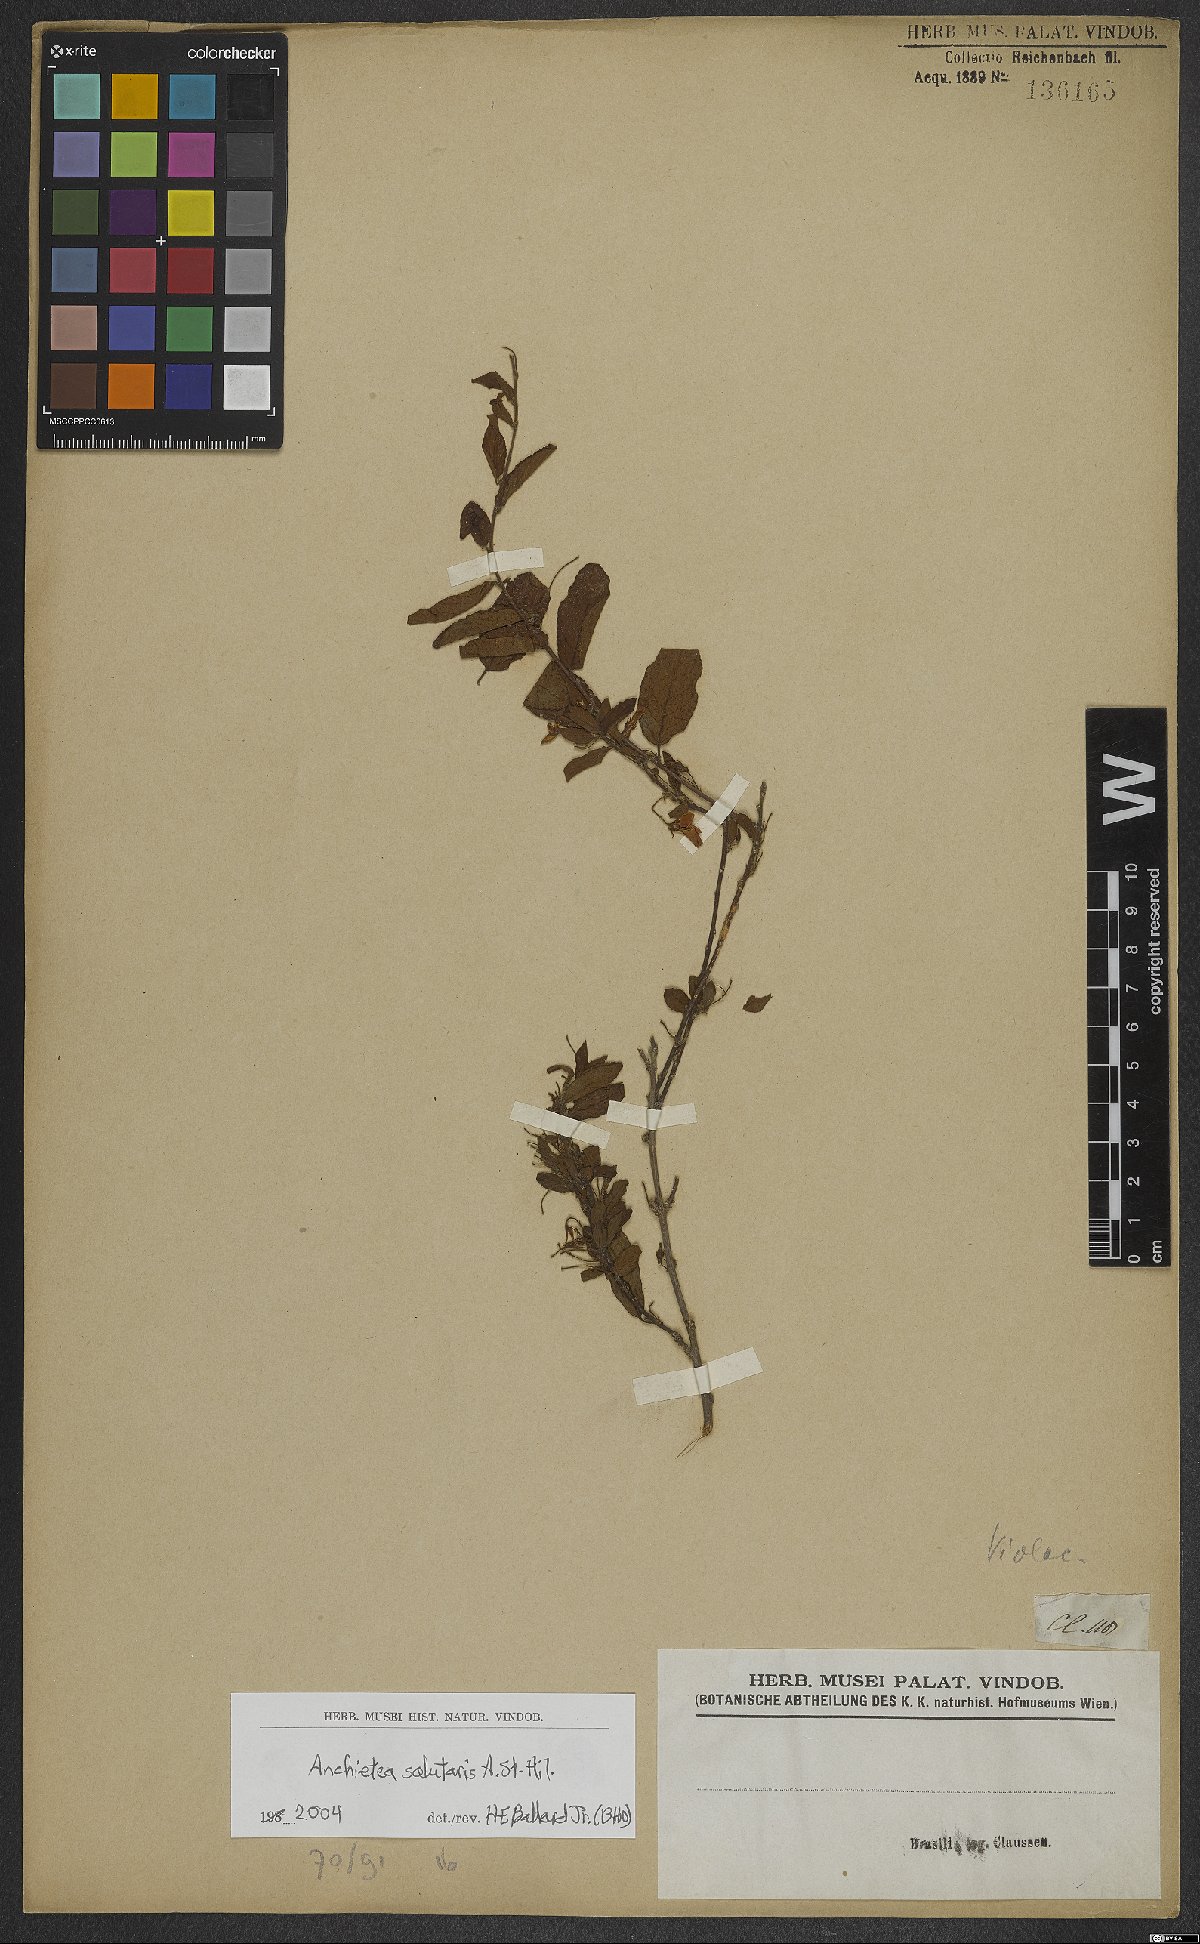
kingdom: Plantae
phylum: Tracheophyta
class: Magnoliopsida
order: Malpighiales
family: Violaceae
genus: Anchietea
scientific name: Anchietea pyrifolia
